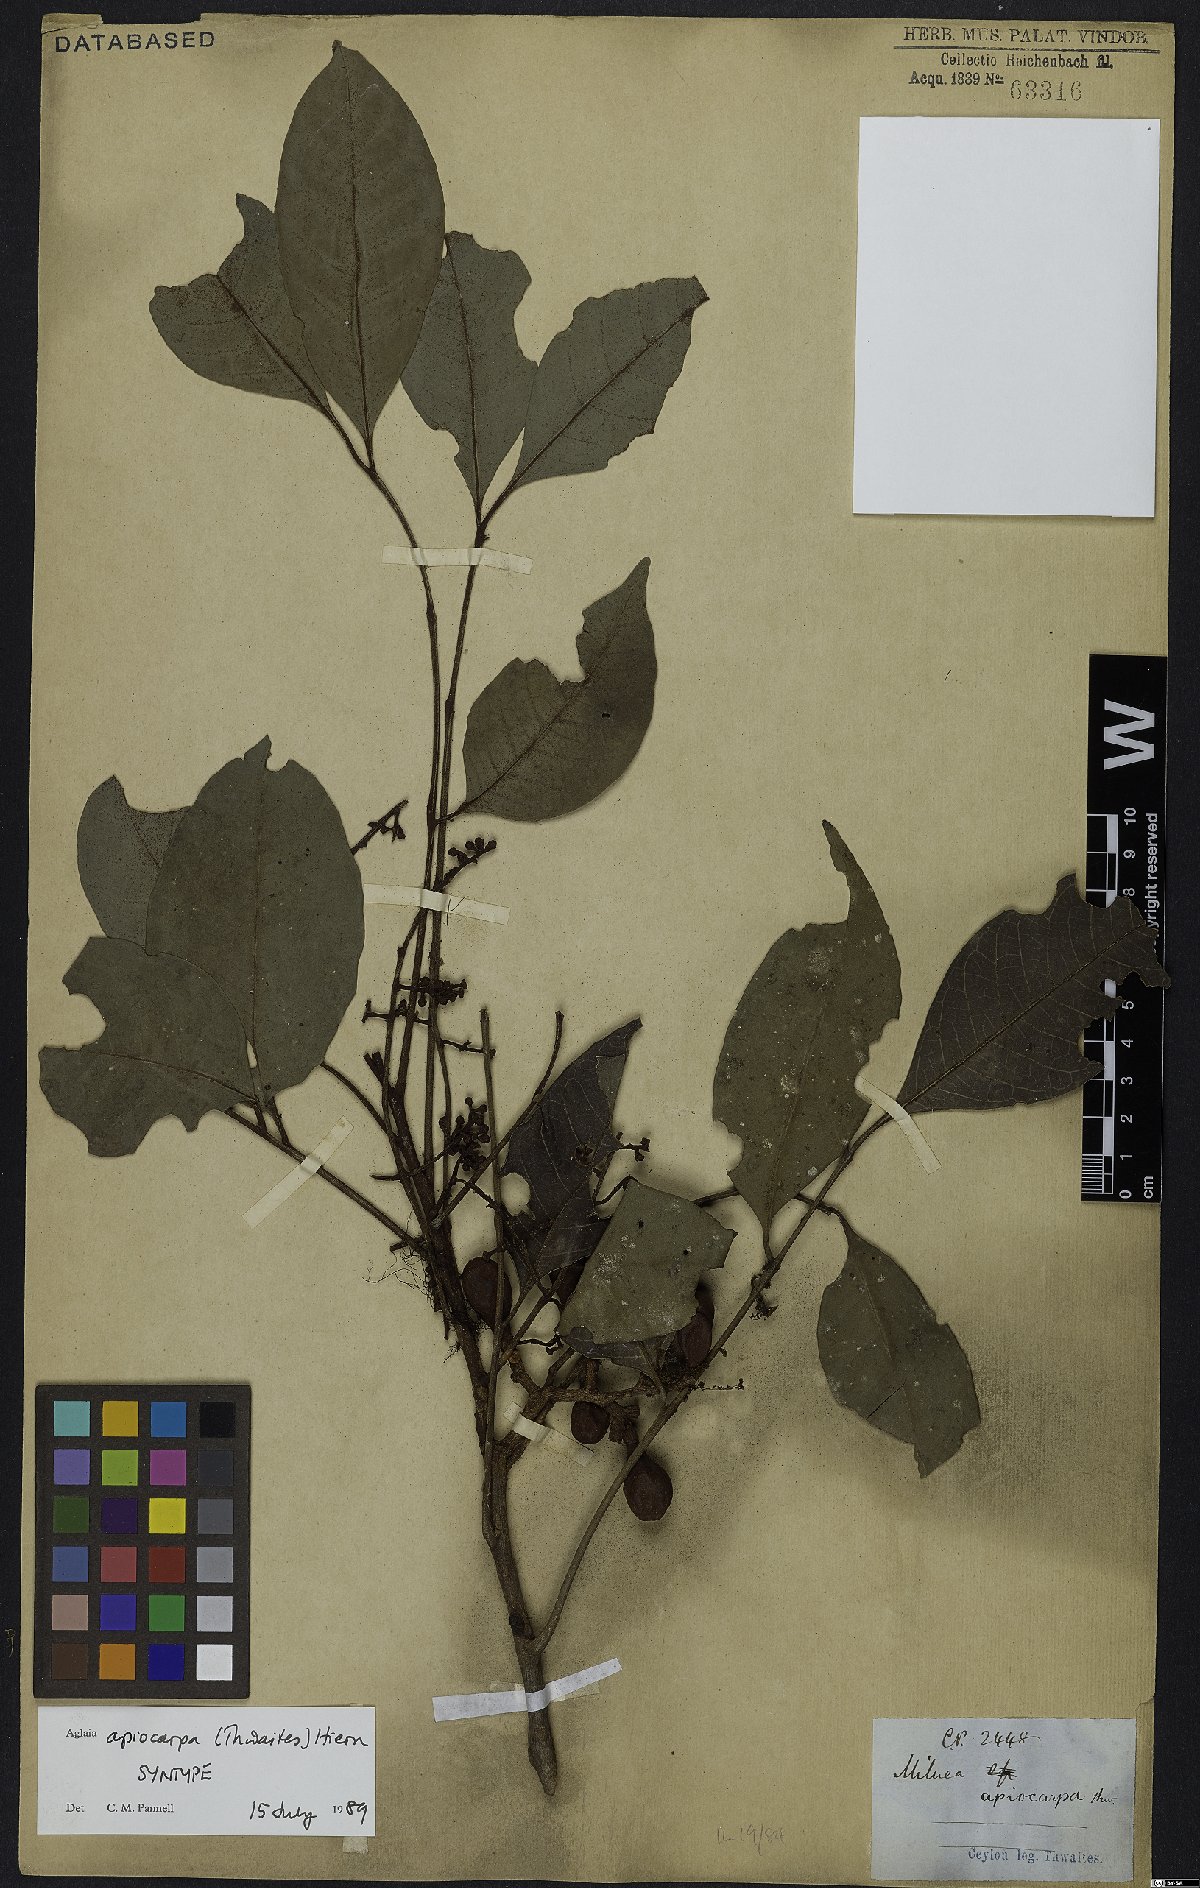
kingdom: Plantae
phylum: Tracheophyta
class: Magnoliopsida
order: Sapindales
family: Meliaceae
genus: Aglaia
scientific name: Aglaia apiocarpa
